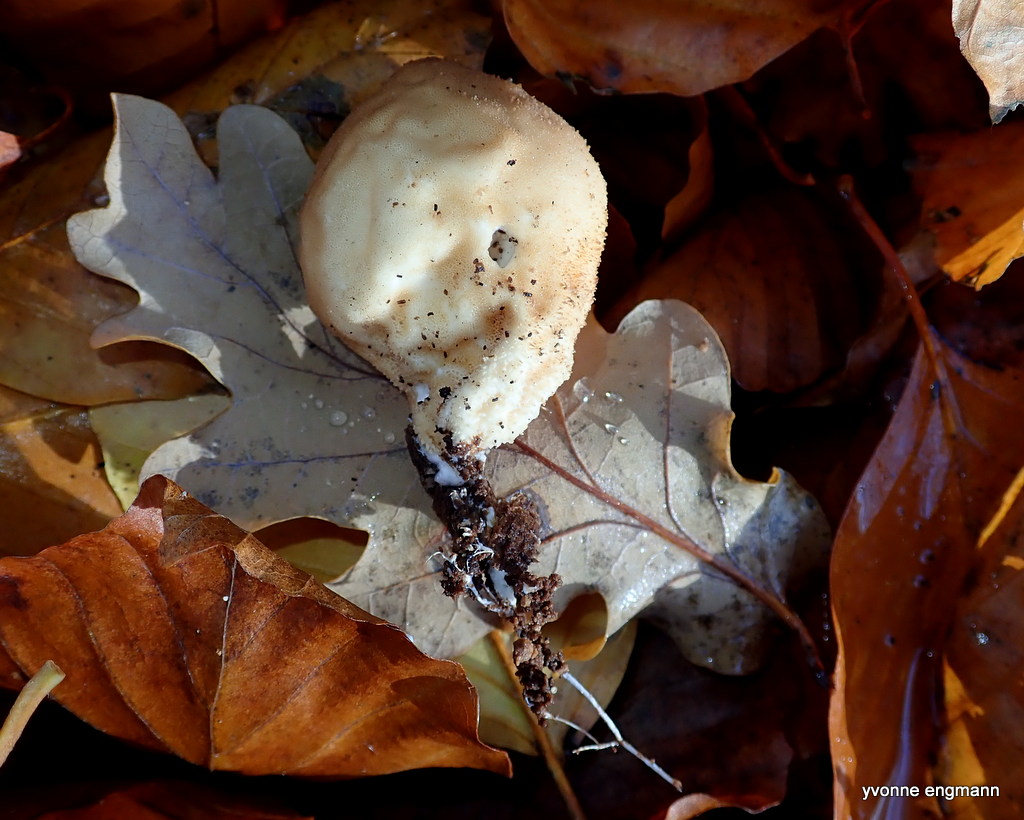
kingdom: Fungi
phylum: Basidiomycota
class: Agaricomycetes
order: Agaricales
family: Lycoperdaceae
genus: Apioperdon
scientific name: Apioperdon pyriforme
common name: pære-støvbold
